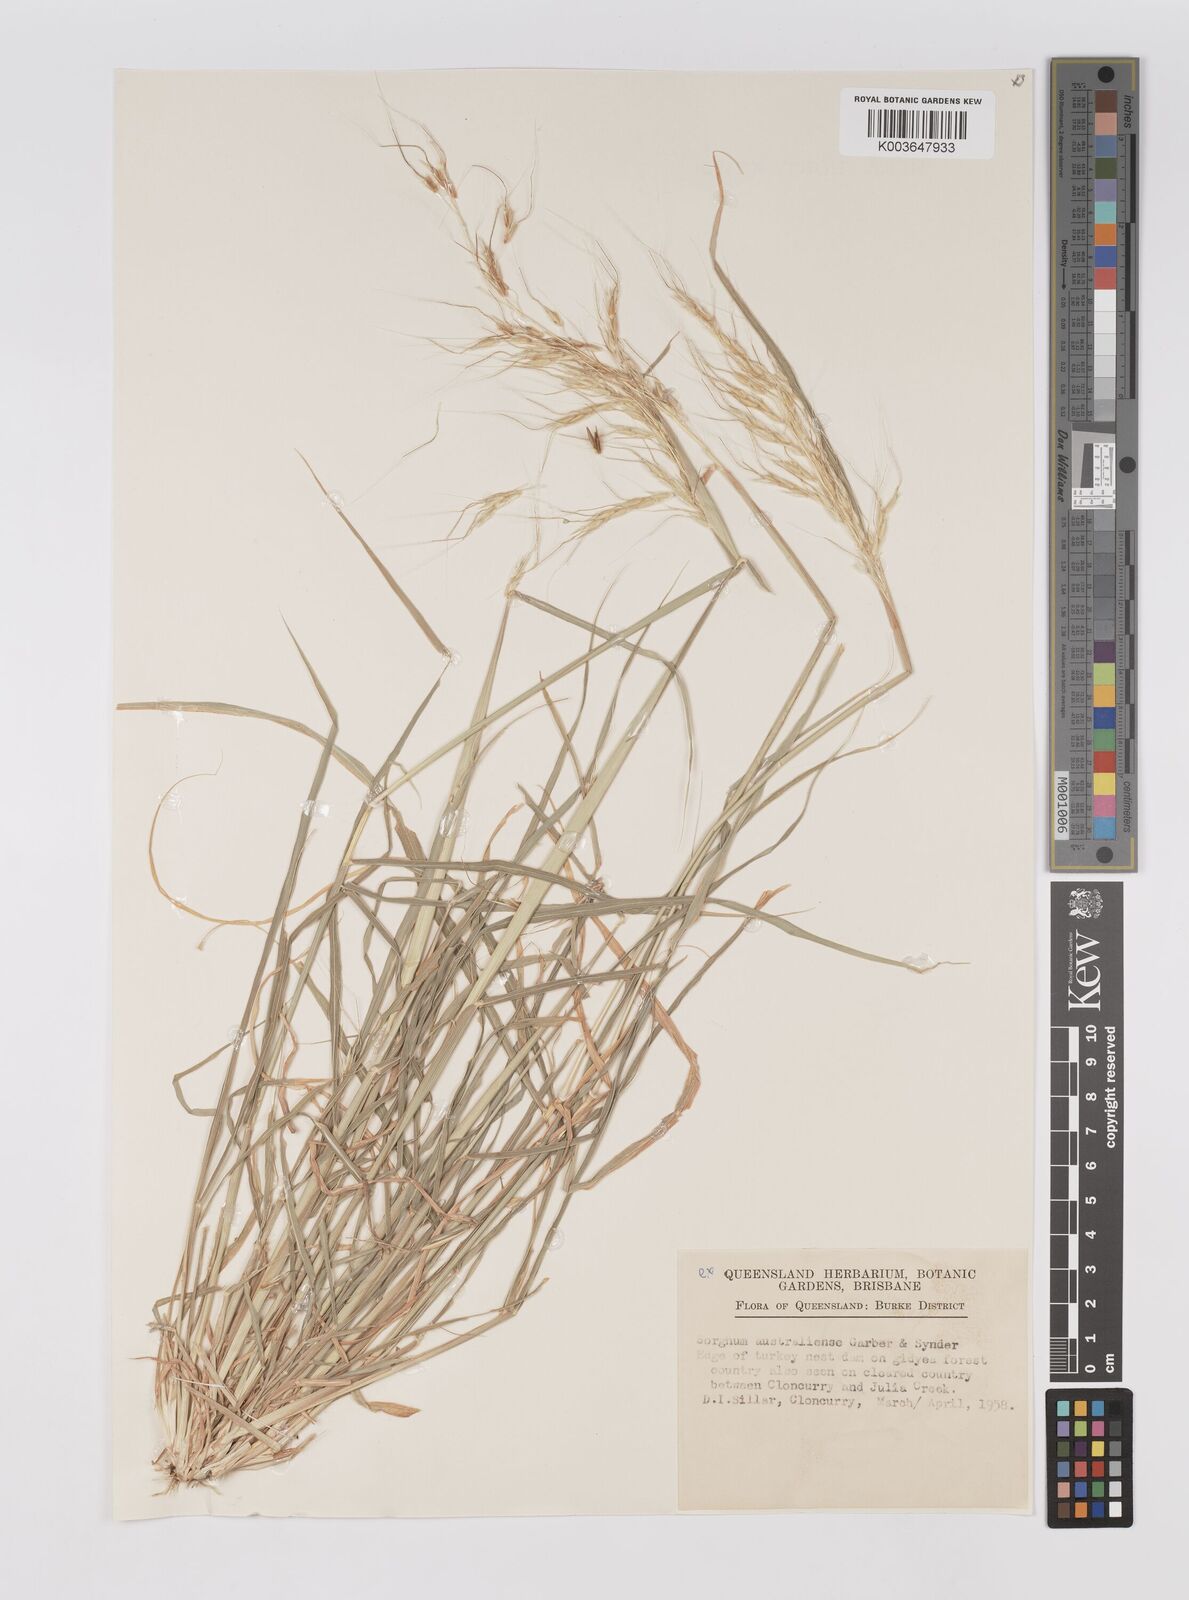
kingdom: Plantae
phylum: Tracheophyta
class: Liliopsida
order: Poales
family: Poaceae
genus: Sarga
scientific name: Sarga timorensis
